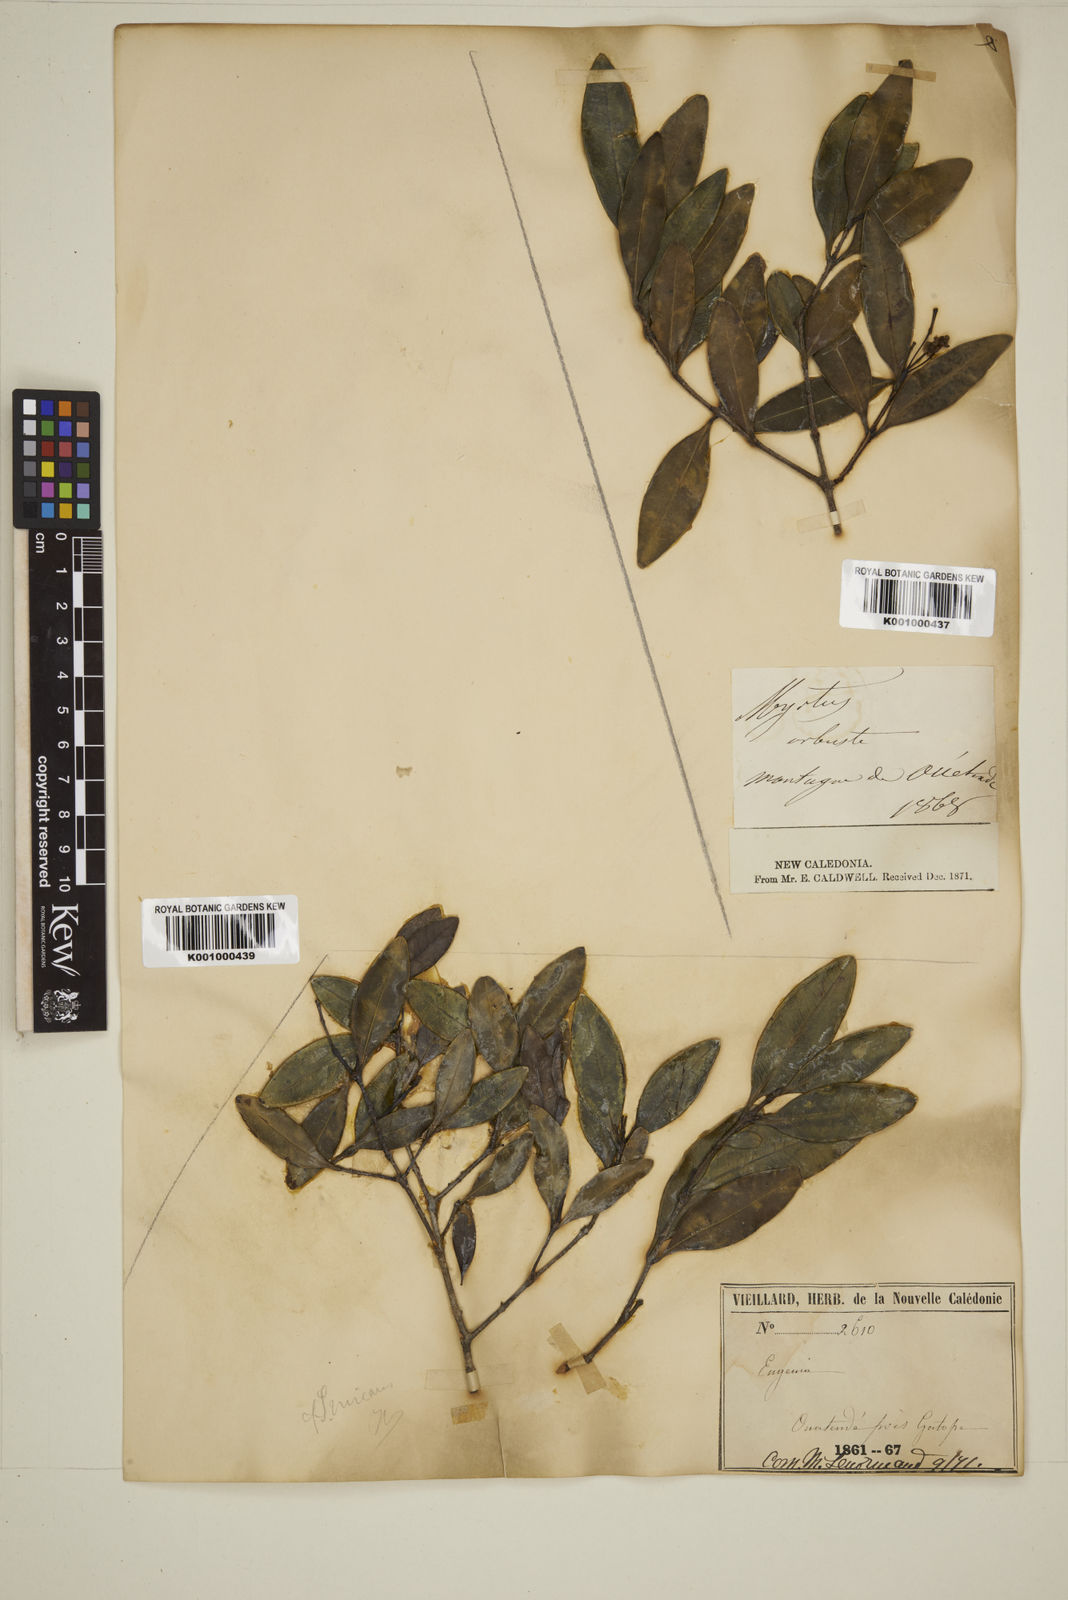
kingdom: Plantae
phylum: Tracheophyta
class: Magnoliopsida
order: Myrtales
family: Myrtaceae
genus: Eugenia
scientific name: Eugenia
